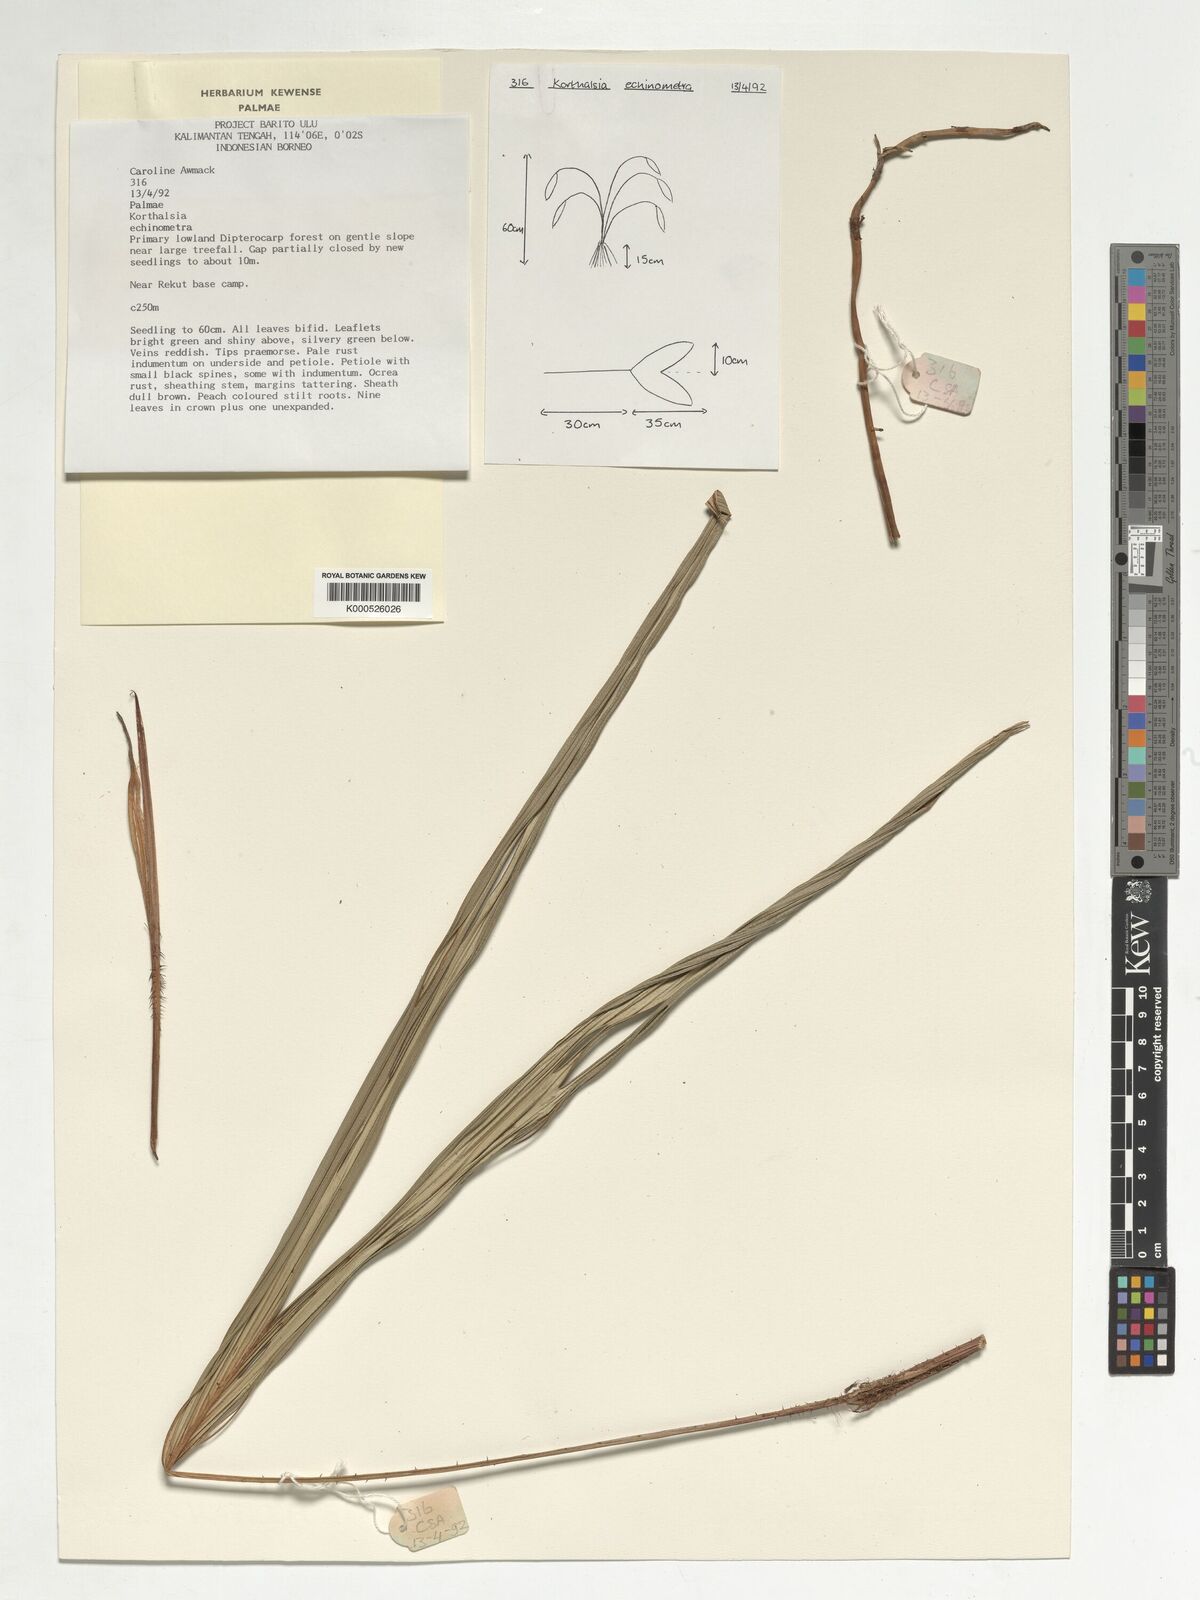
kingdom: Plantae
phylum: Tracheophyta
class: Liliopsida
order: Arecales
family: Arecaceae
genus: Korthalsia
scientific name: Korthalsia echinometra
